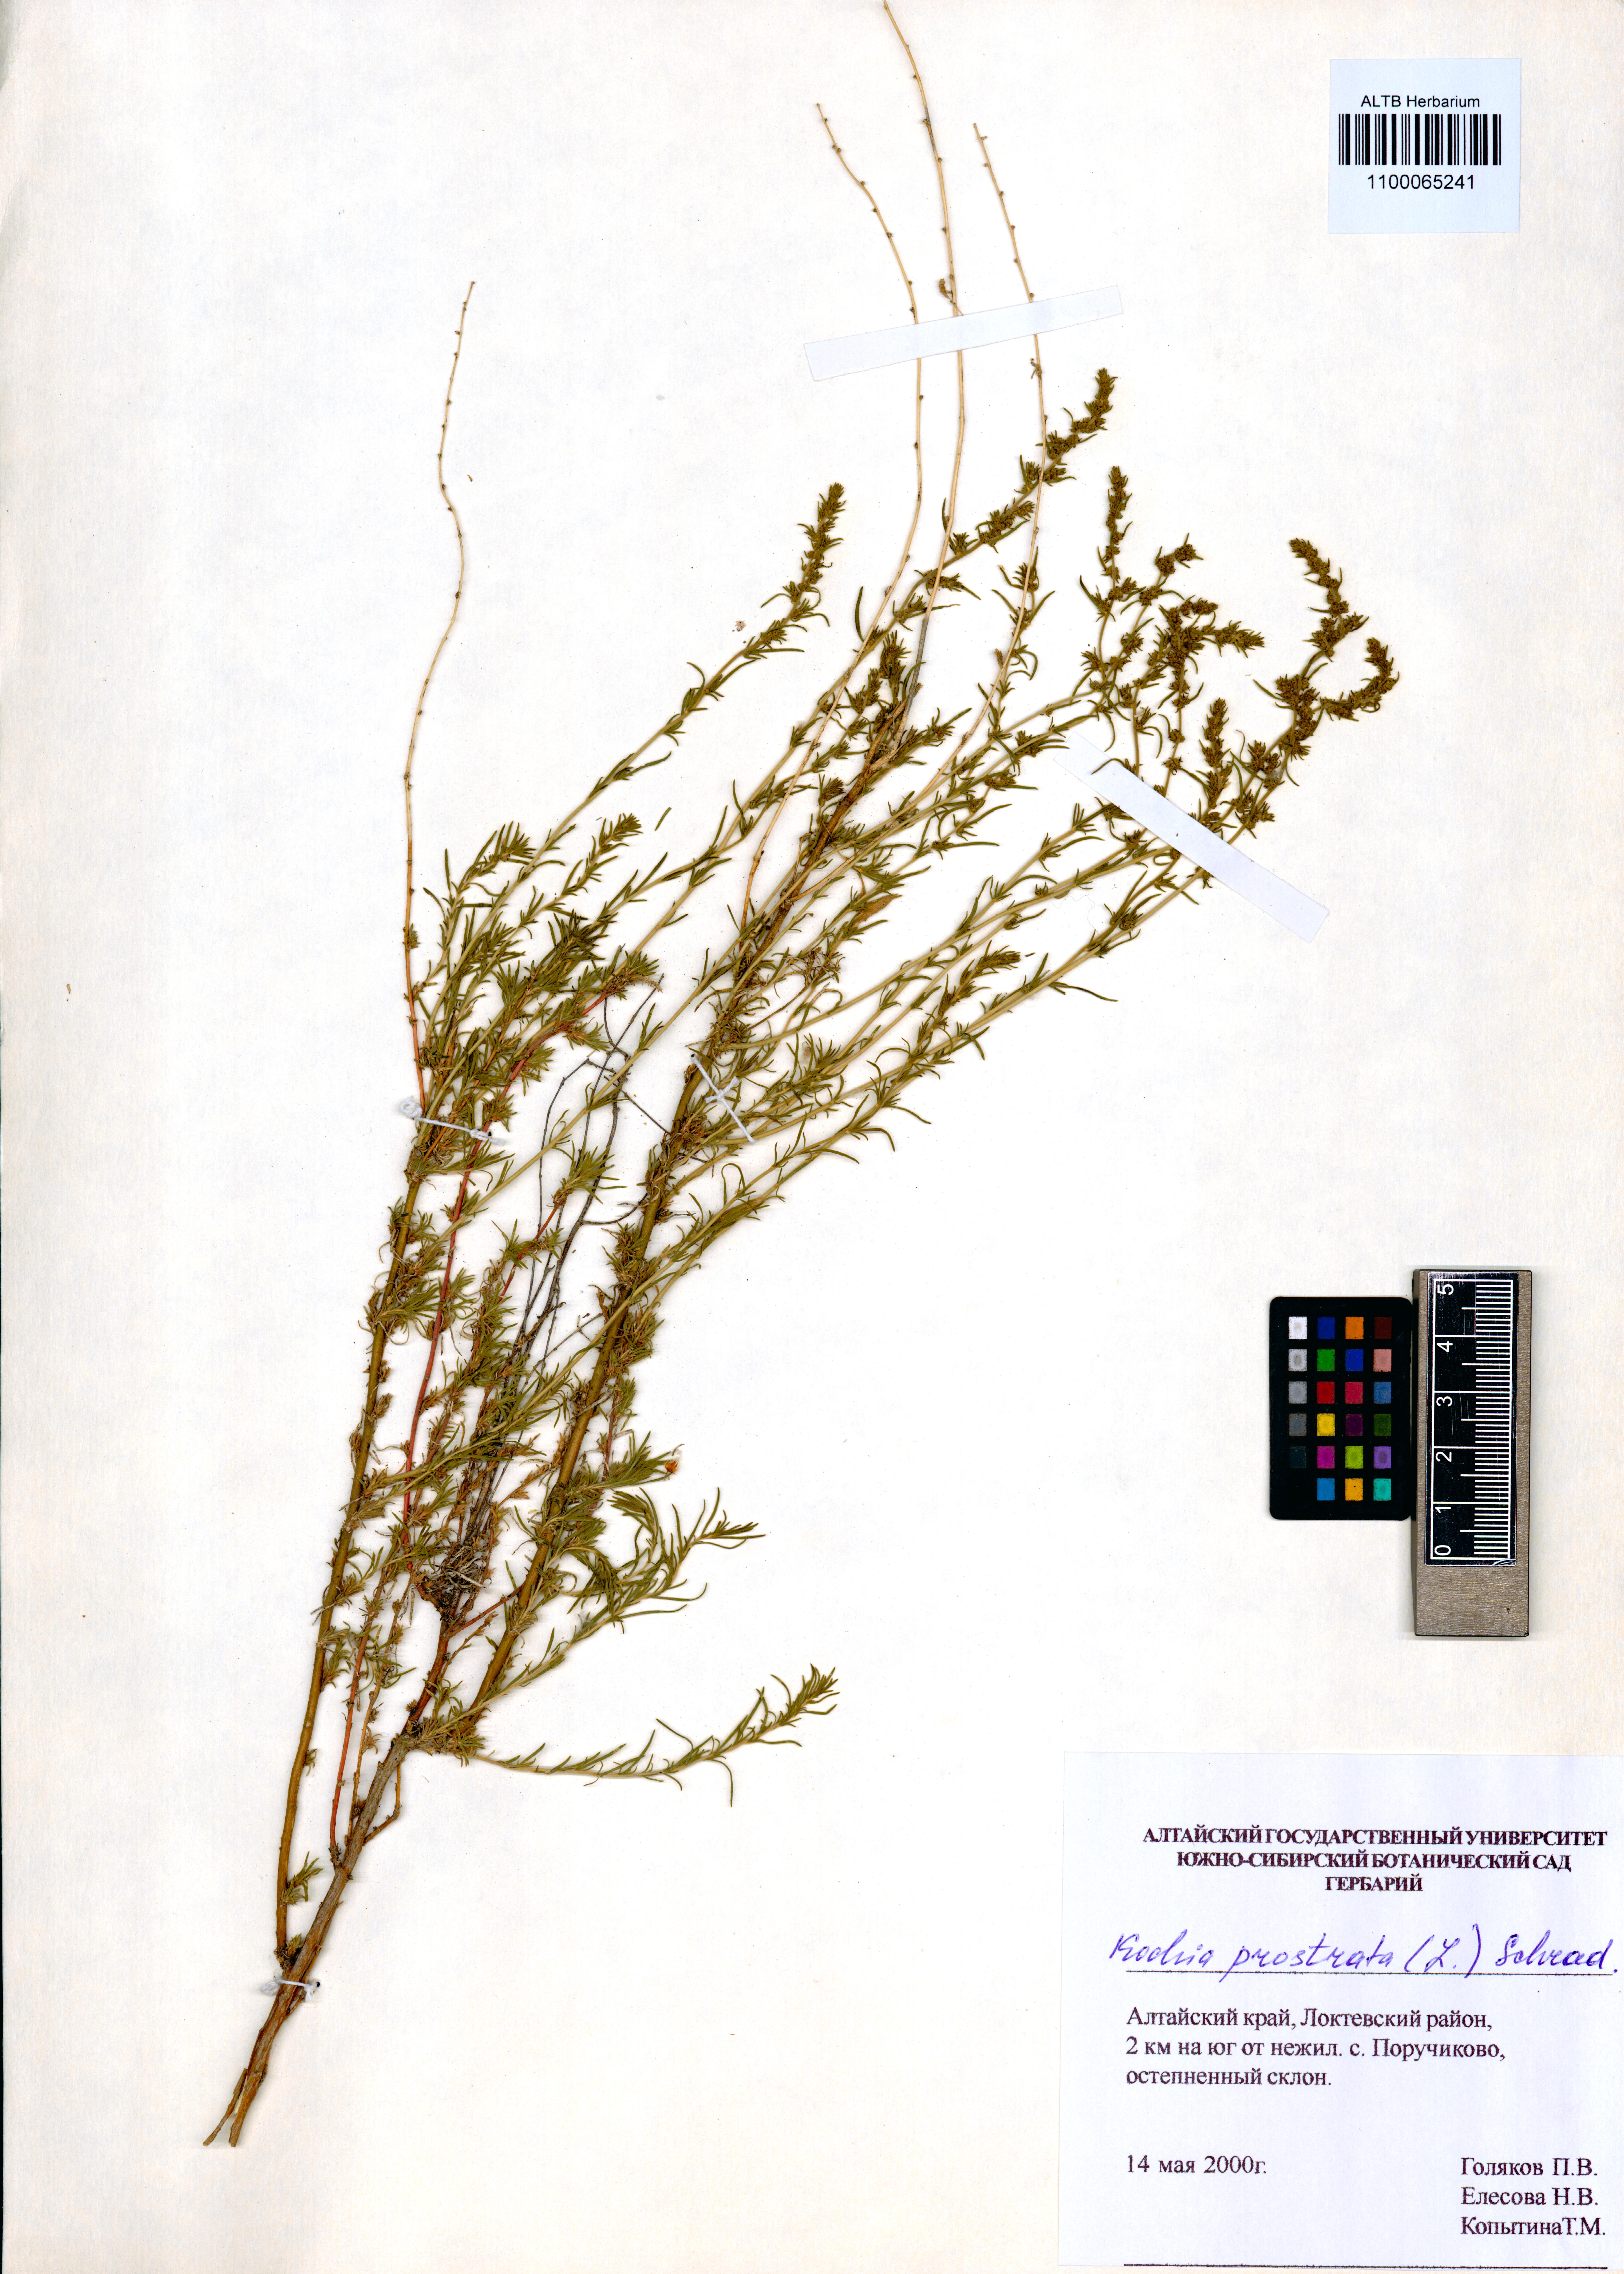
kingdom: Plantae
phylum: Tracheophyta
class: Magnoliopsida
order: Caryophyllales
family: Amaranthaceae
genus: Bassia
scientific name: Bassia prostrata
